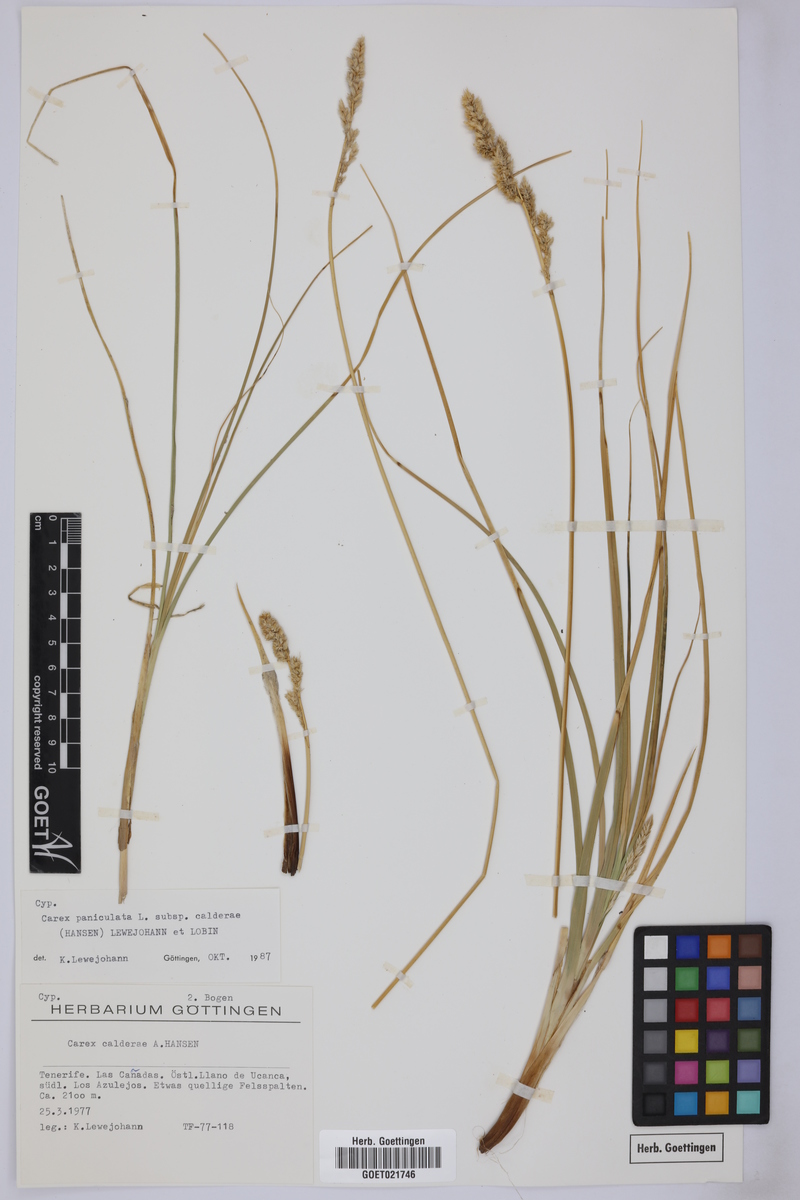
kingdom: Plantae
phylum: Tracheophyta
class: Liliopsida
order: Poales
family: Cyperaceae
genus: Carex
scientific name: Carex paniculata
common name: Greater tussock-sedge
